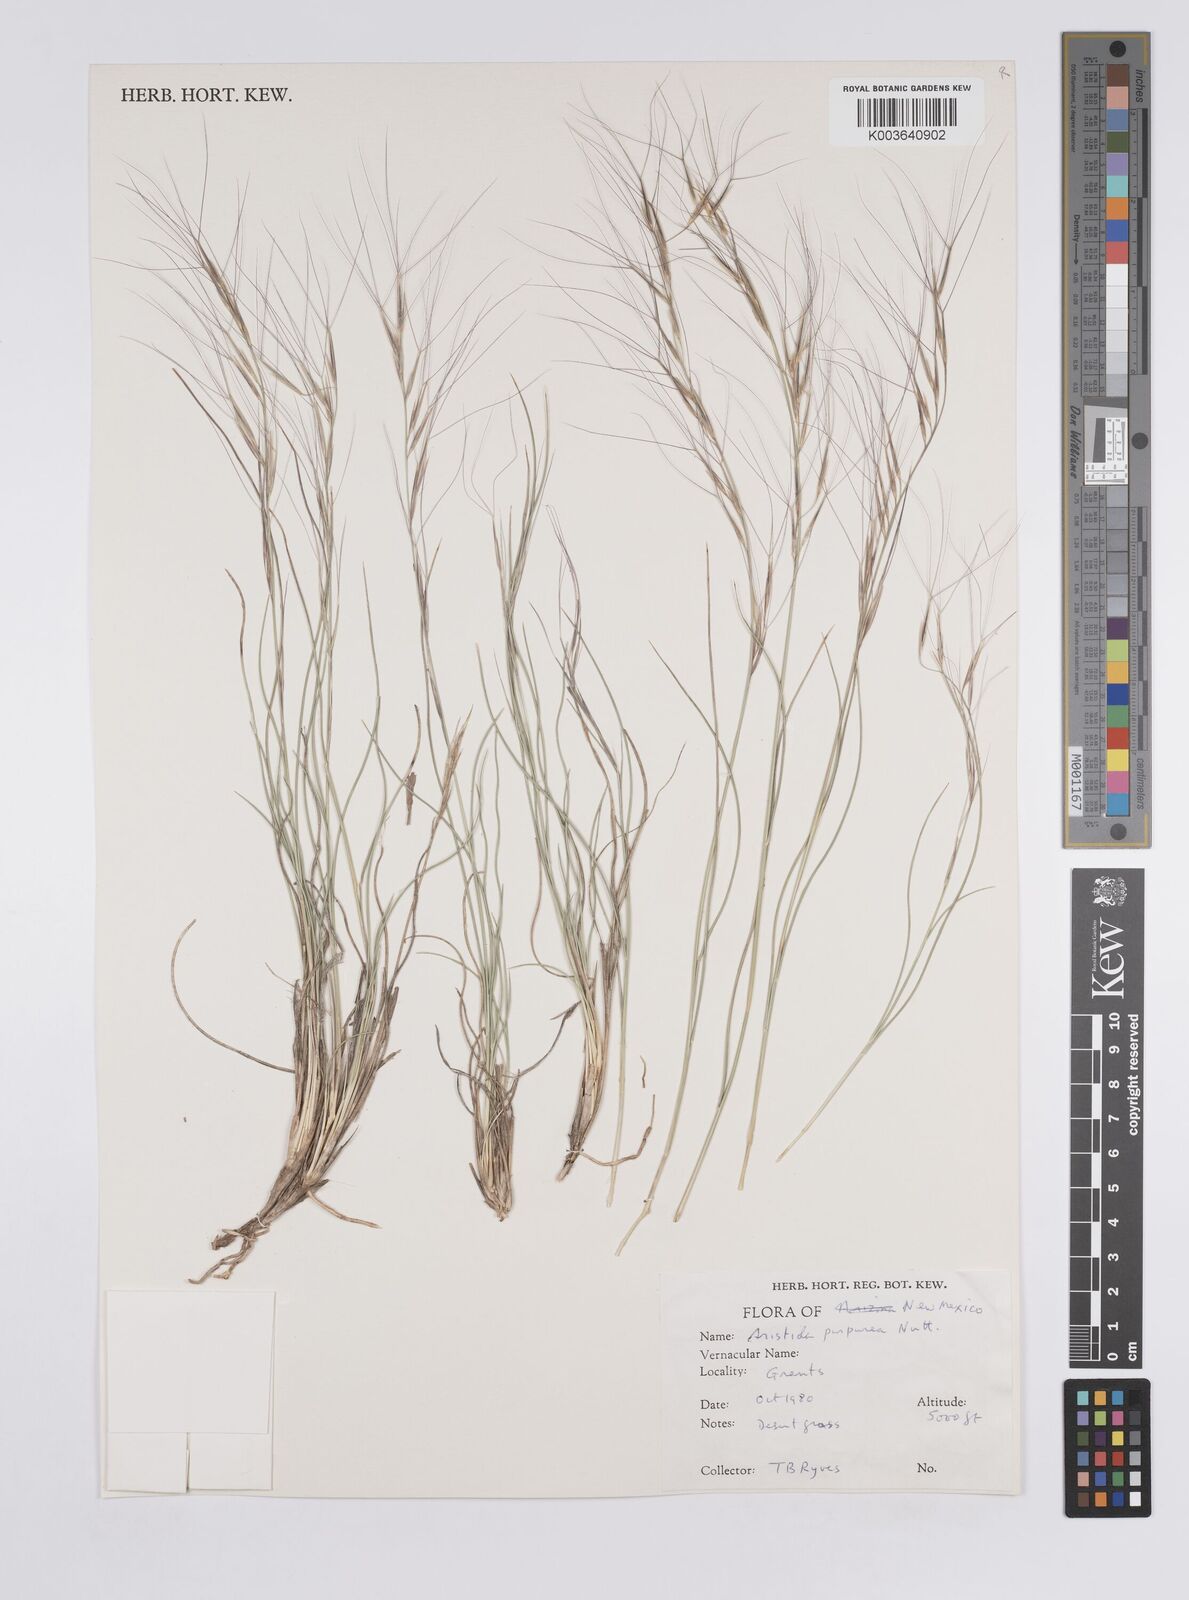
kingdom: Plantae
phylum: Tracheophyta
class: Liliopsida
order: Poales
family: Poaceae
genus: Aristida
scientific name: Aristida purpurea
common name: Purple threeawn
